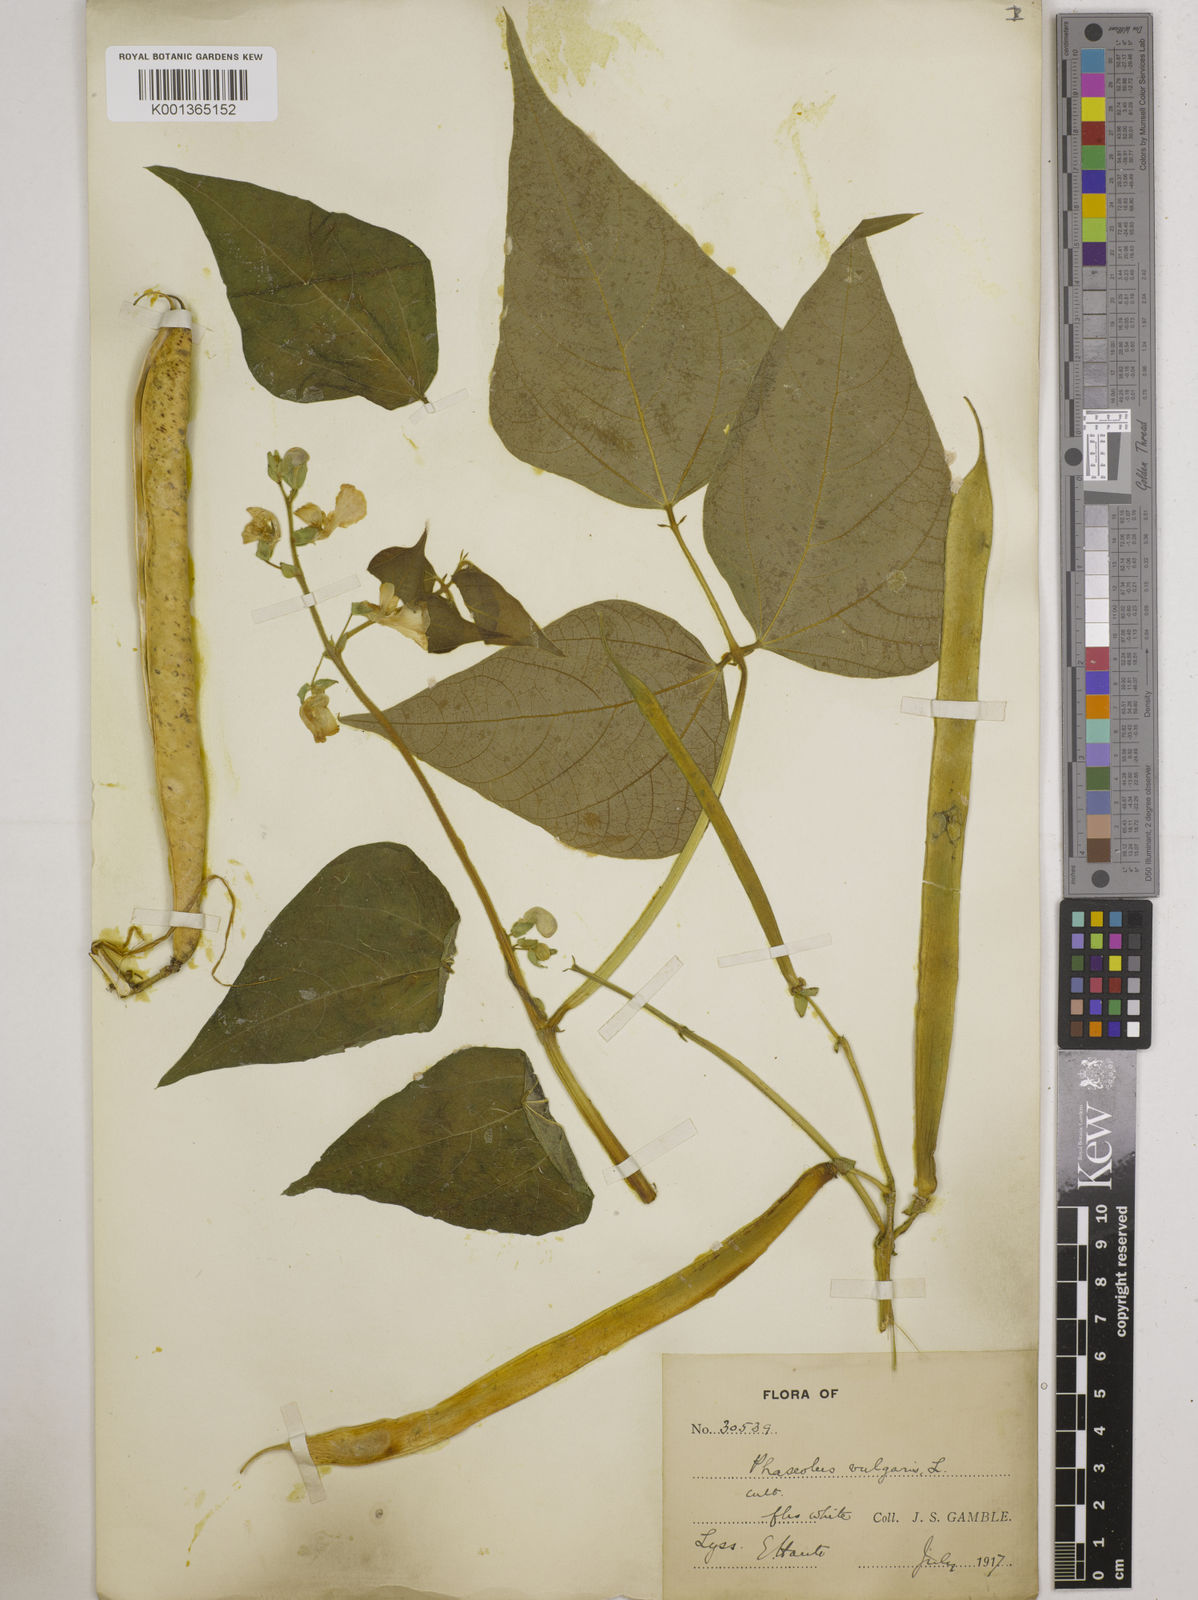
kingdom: Plantae
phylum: Tracheophyta
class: Magnoliopsida
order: Fabales
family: Fabaceae
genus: Phaseolus
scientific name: Phaseolus vulgaris
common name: Bean
